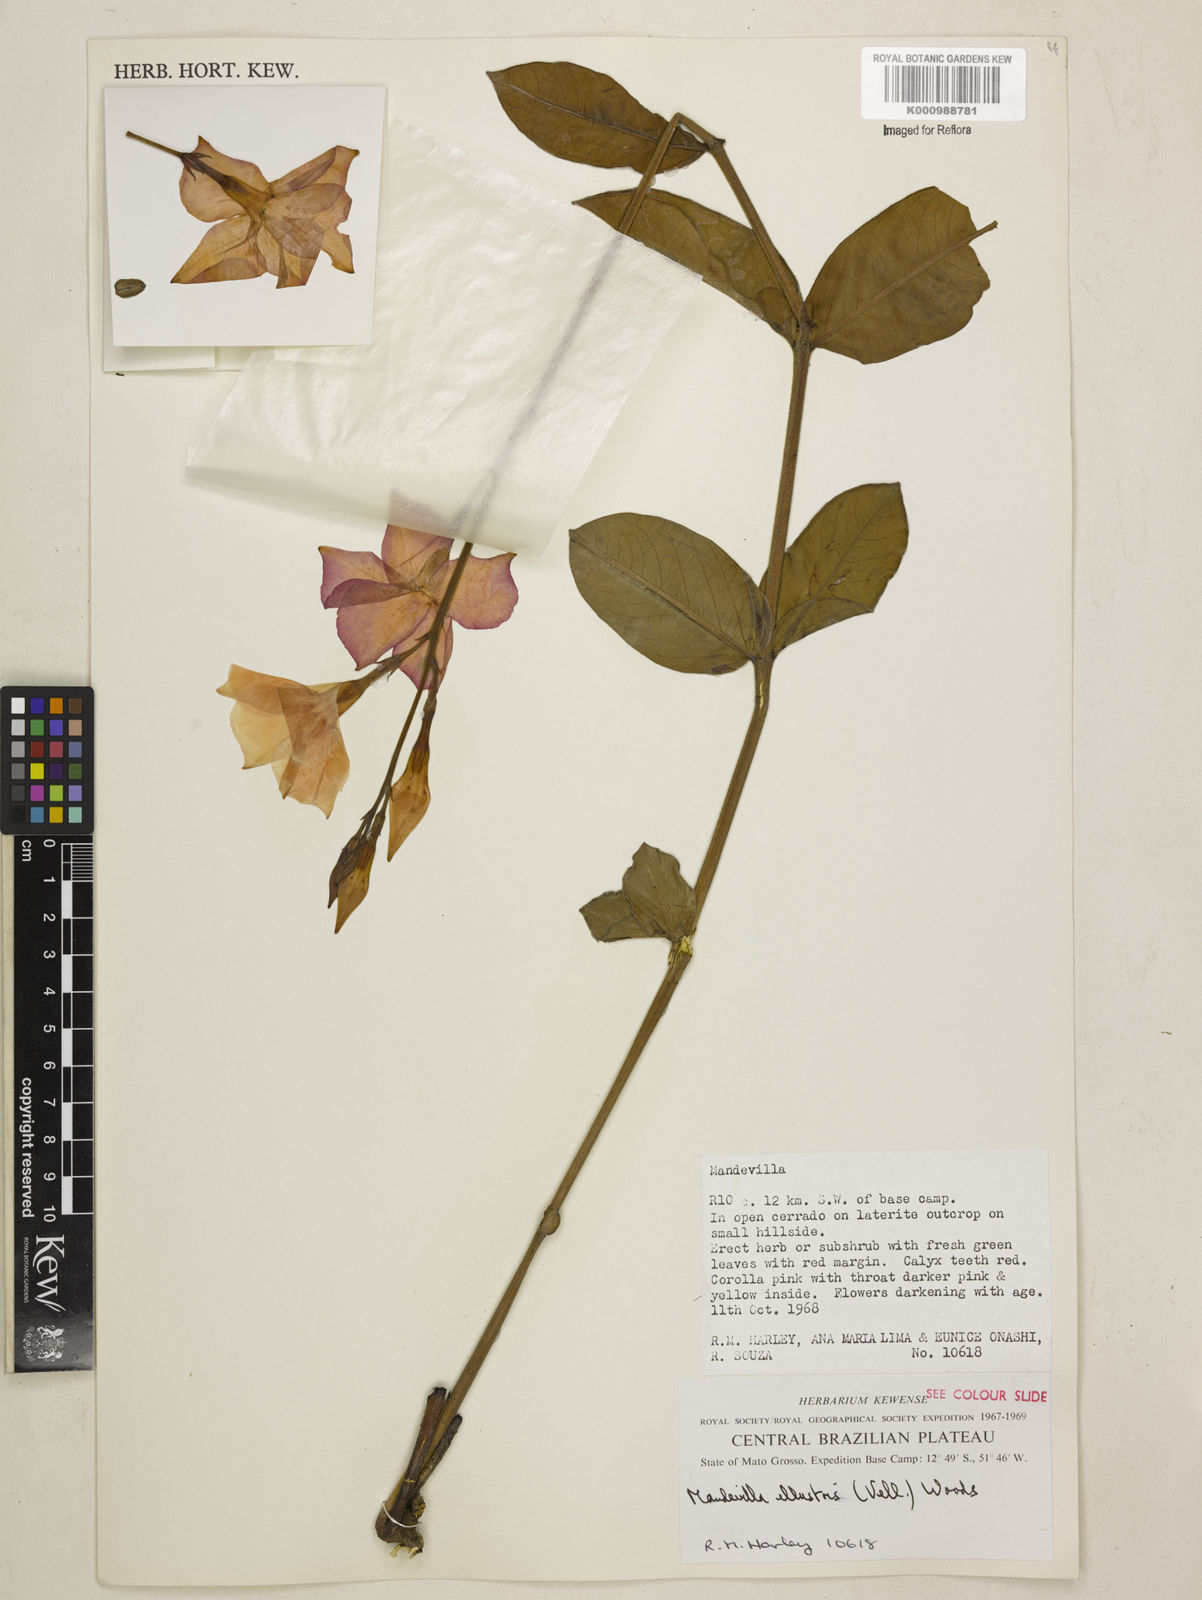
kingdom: Plantae
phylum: Tracheophyta
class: Magnoliopsida
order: Gentianales
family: Apocynaceae
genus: Mandevilla
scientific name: Mandevilla illustris
